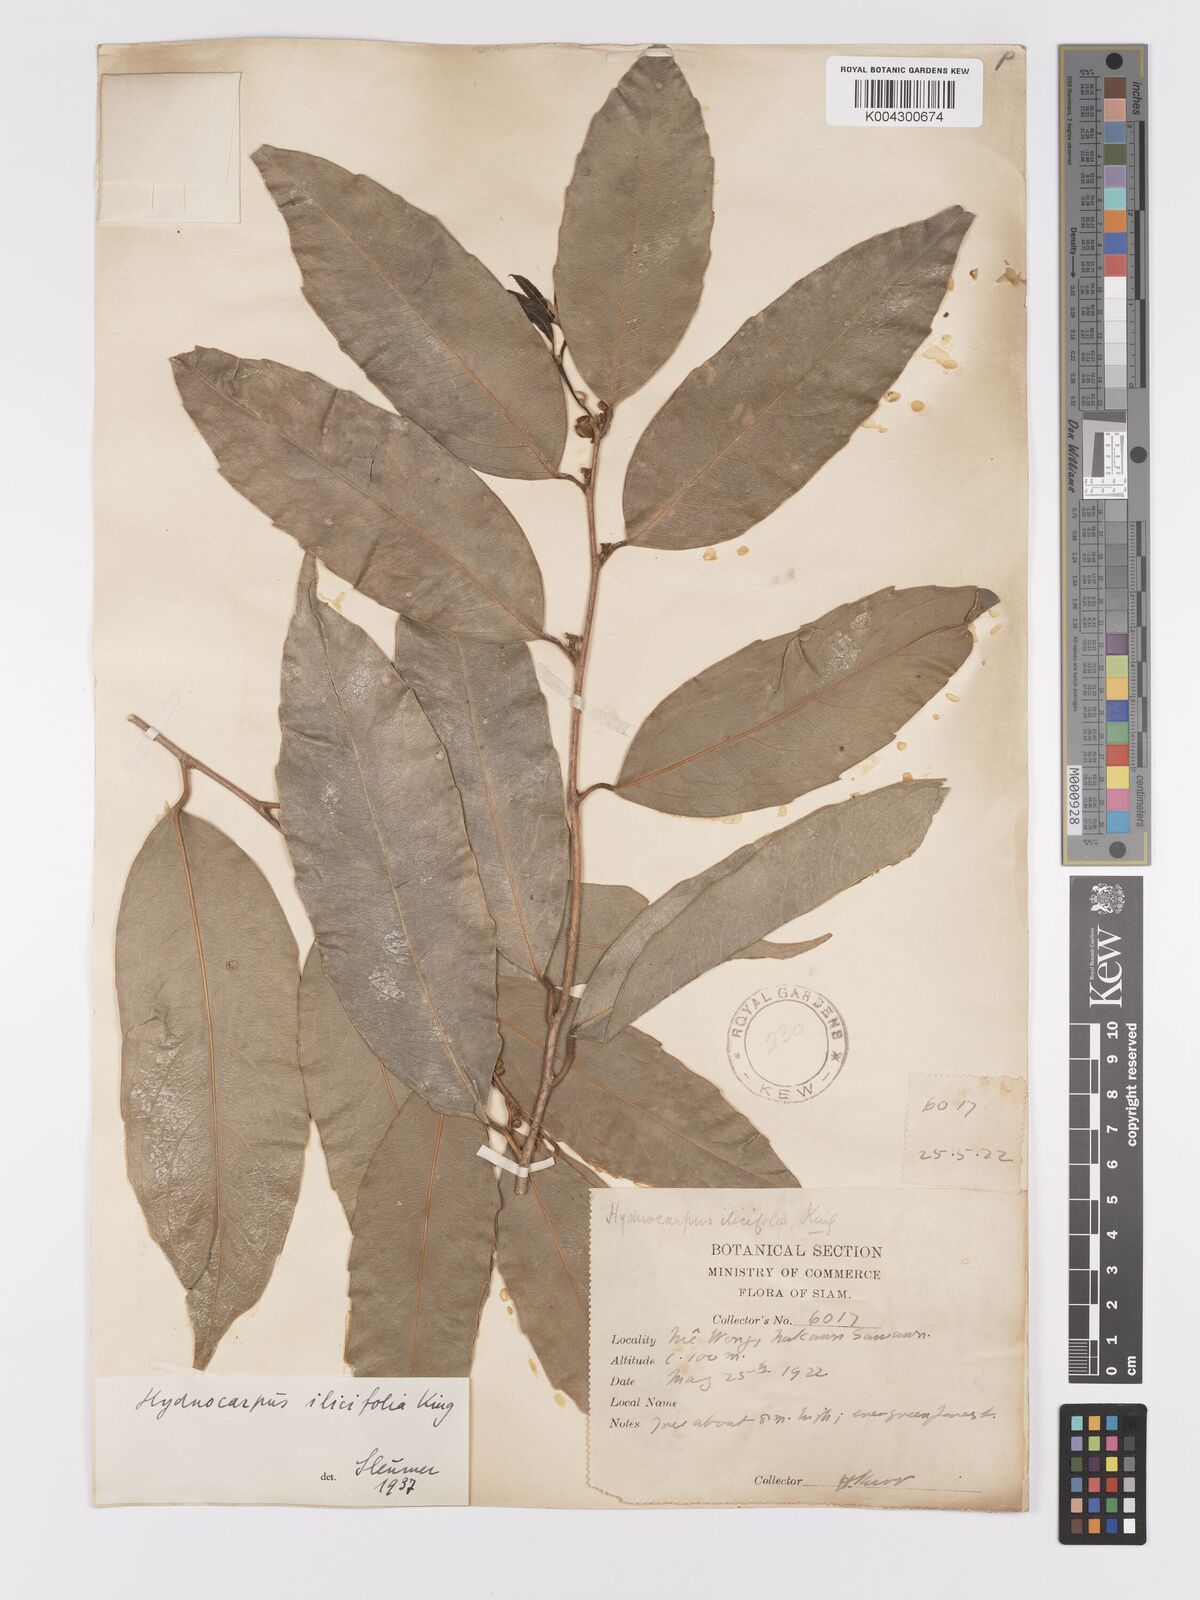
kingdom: Plantae
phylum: Tracheophyta
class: Magnoliopsida
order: Malpighiales
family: Achariaceae
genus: Hydnocarpus
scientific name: Hydnocarpus ilicifolius
